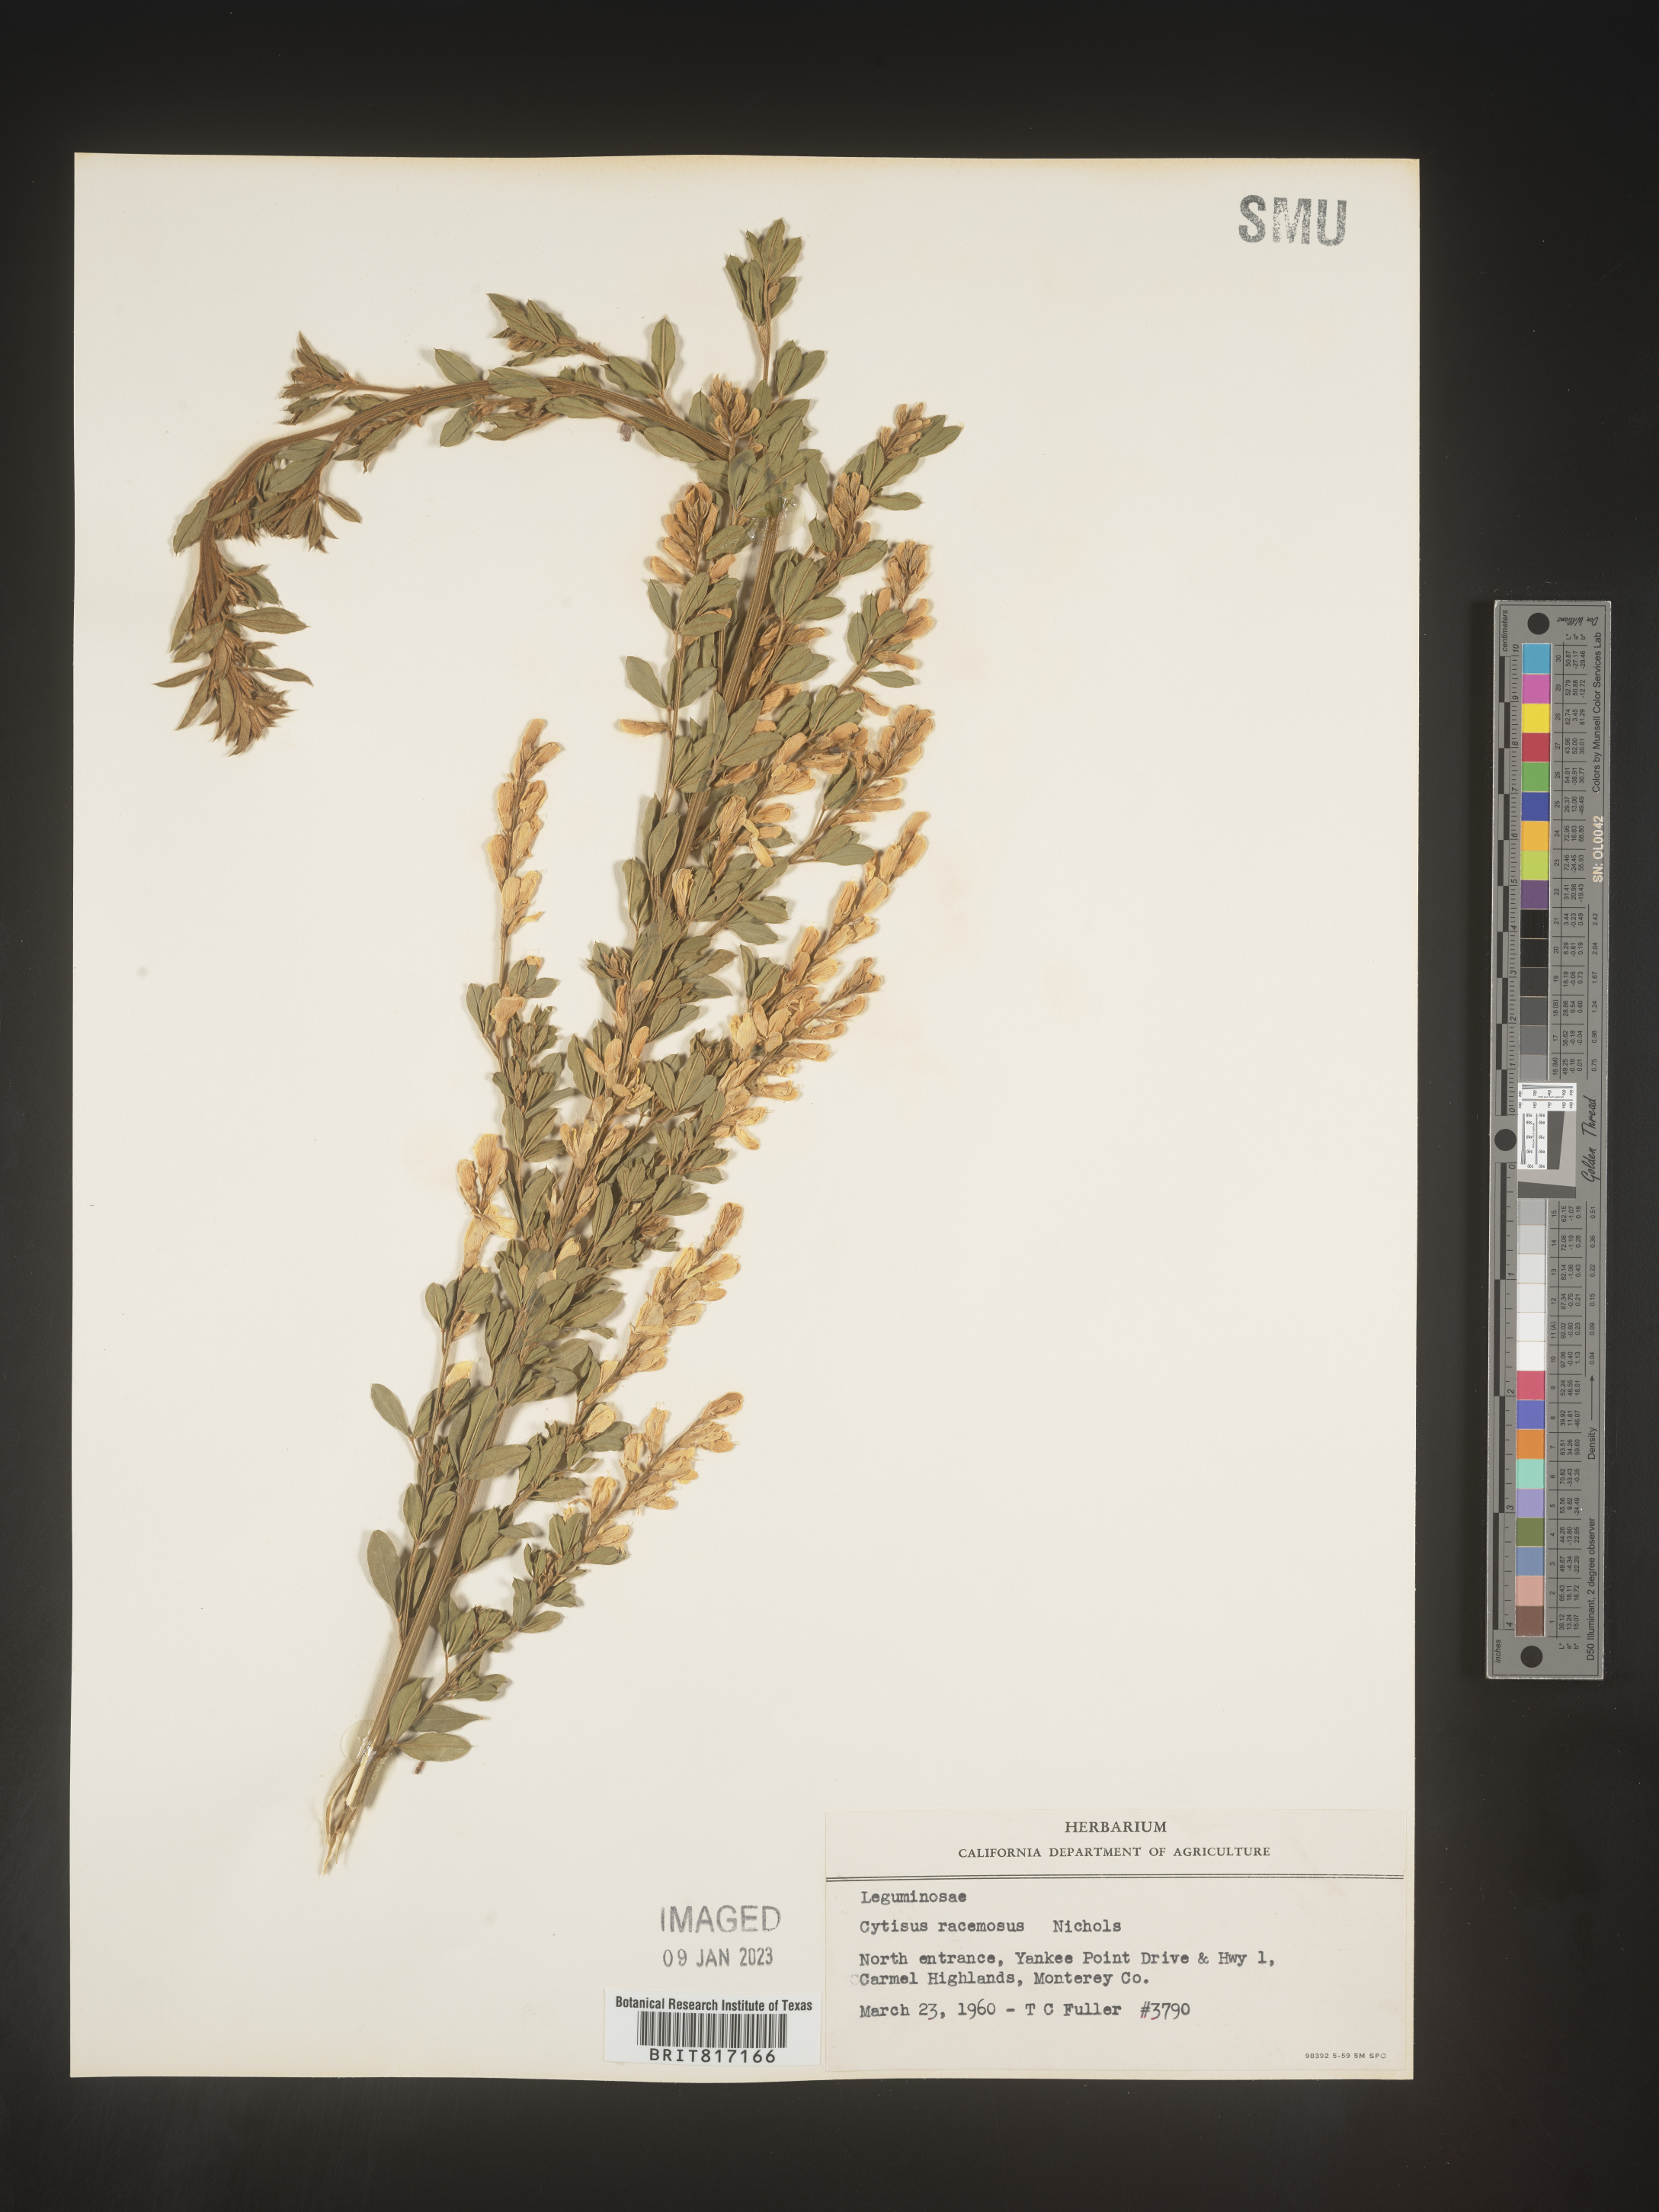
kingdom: Plantae
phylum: Tracheophyta
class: Magnoliopsida
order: Fabales
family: Fabaceae
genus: Cytisus
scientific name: Cytisus
